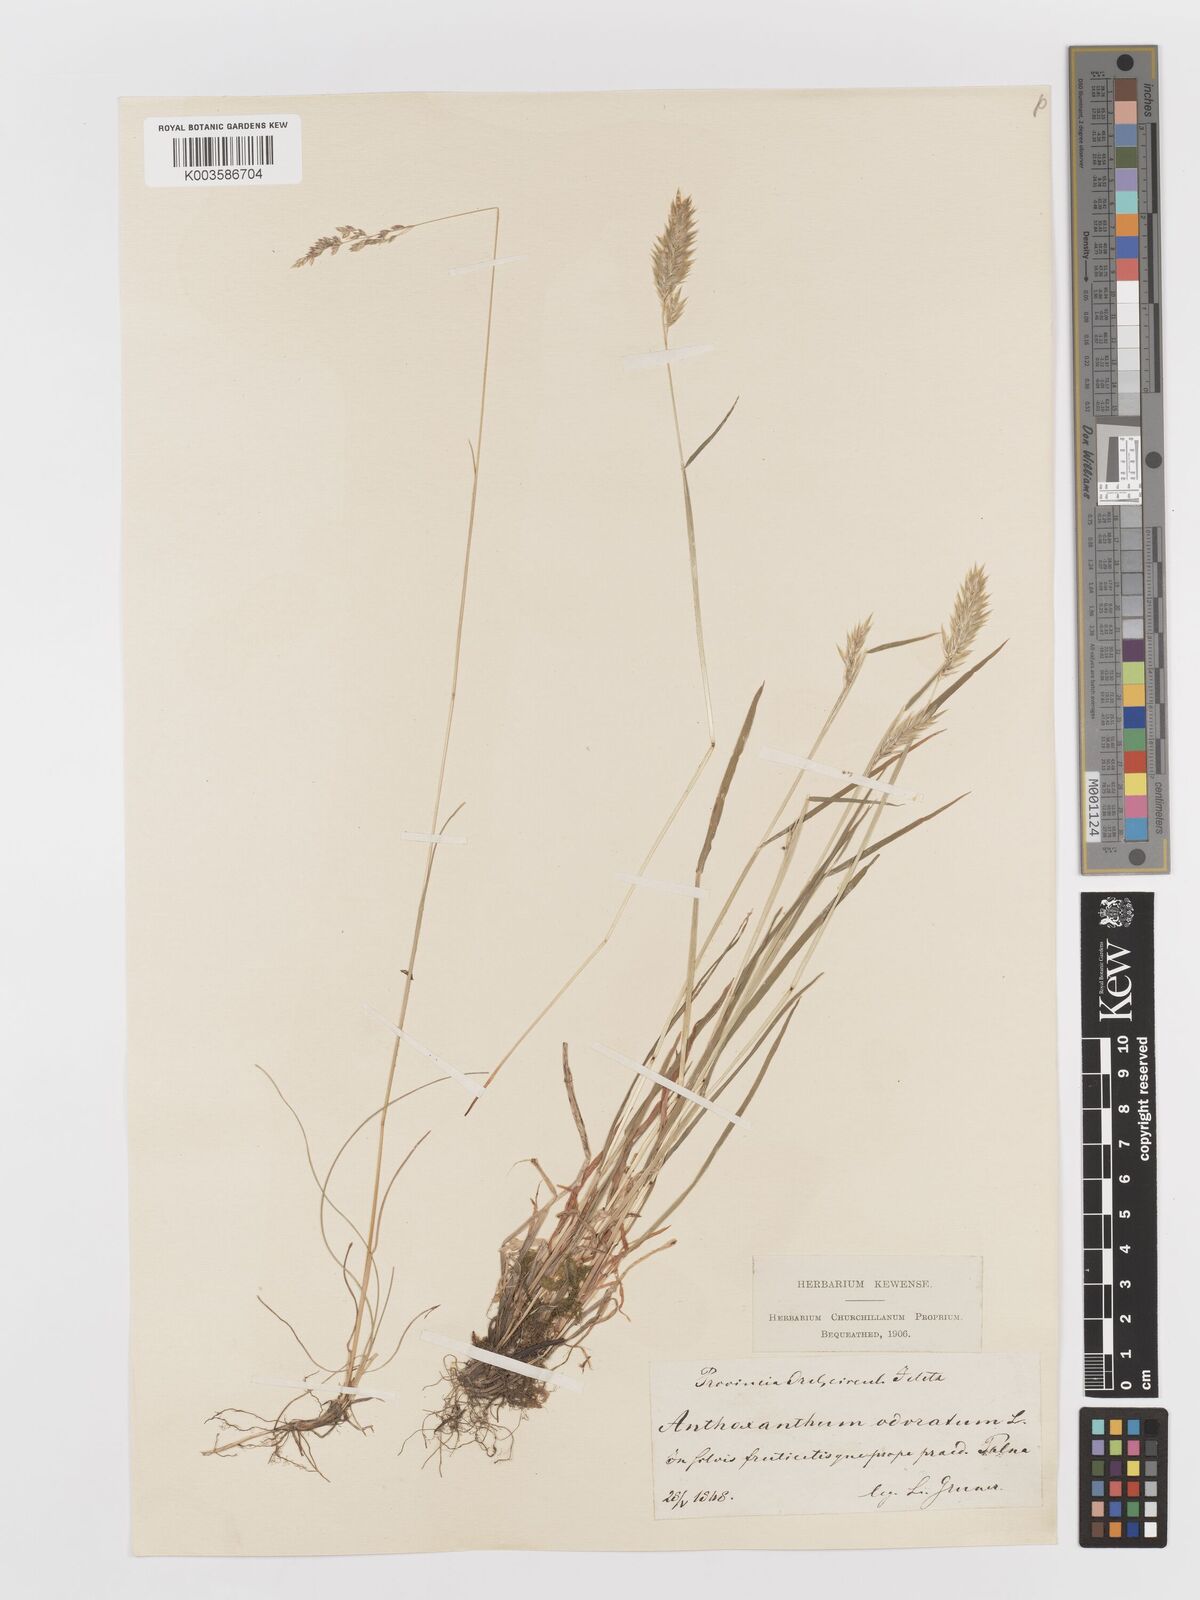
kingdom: Plantae
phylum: Tracheophyta
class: Liliopsida
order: Poales
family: Poaceae
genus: Anthoxanthum
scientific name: Anthoxanthum odoratum
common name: Sweet vernalgrass
